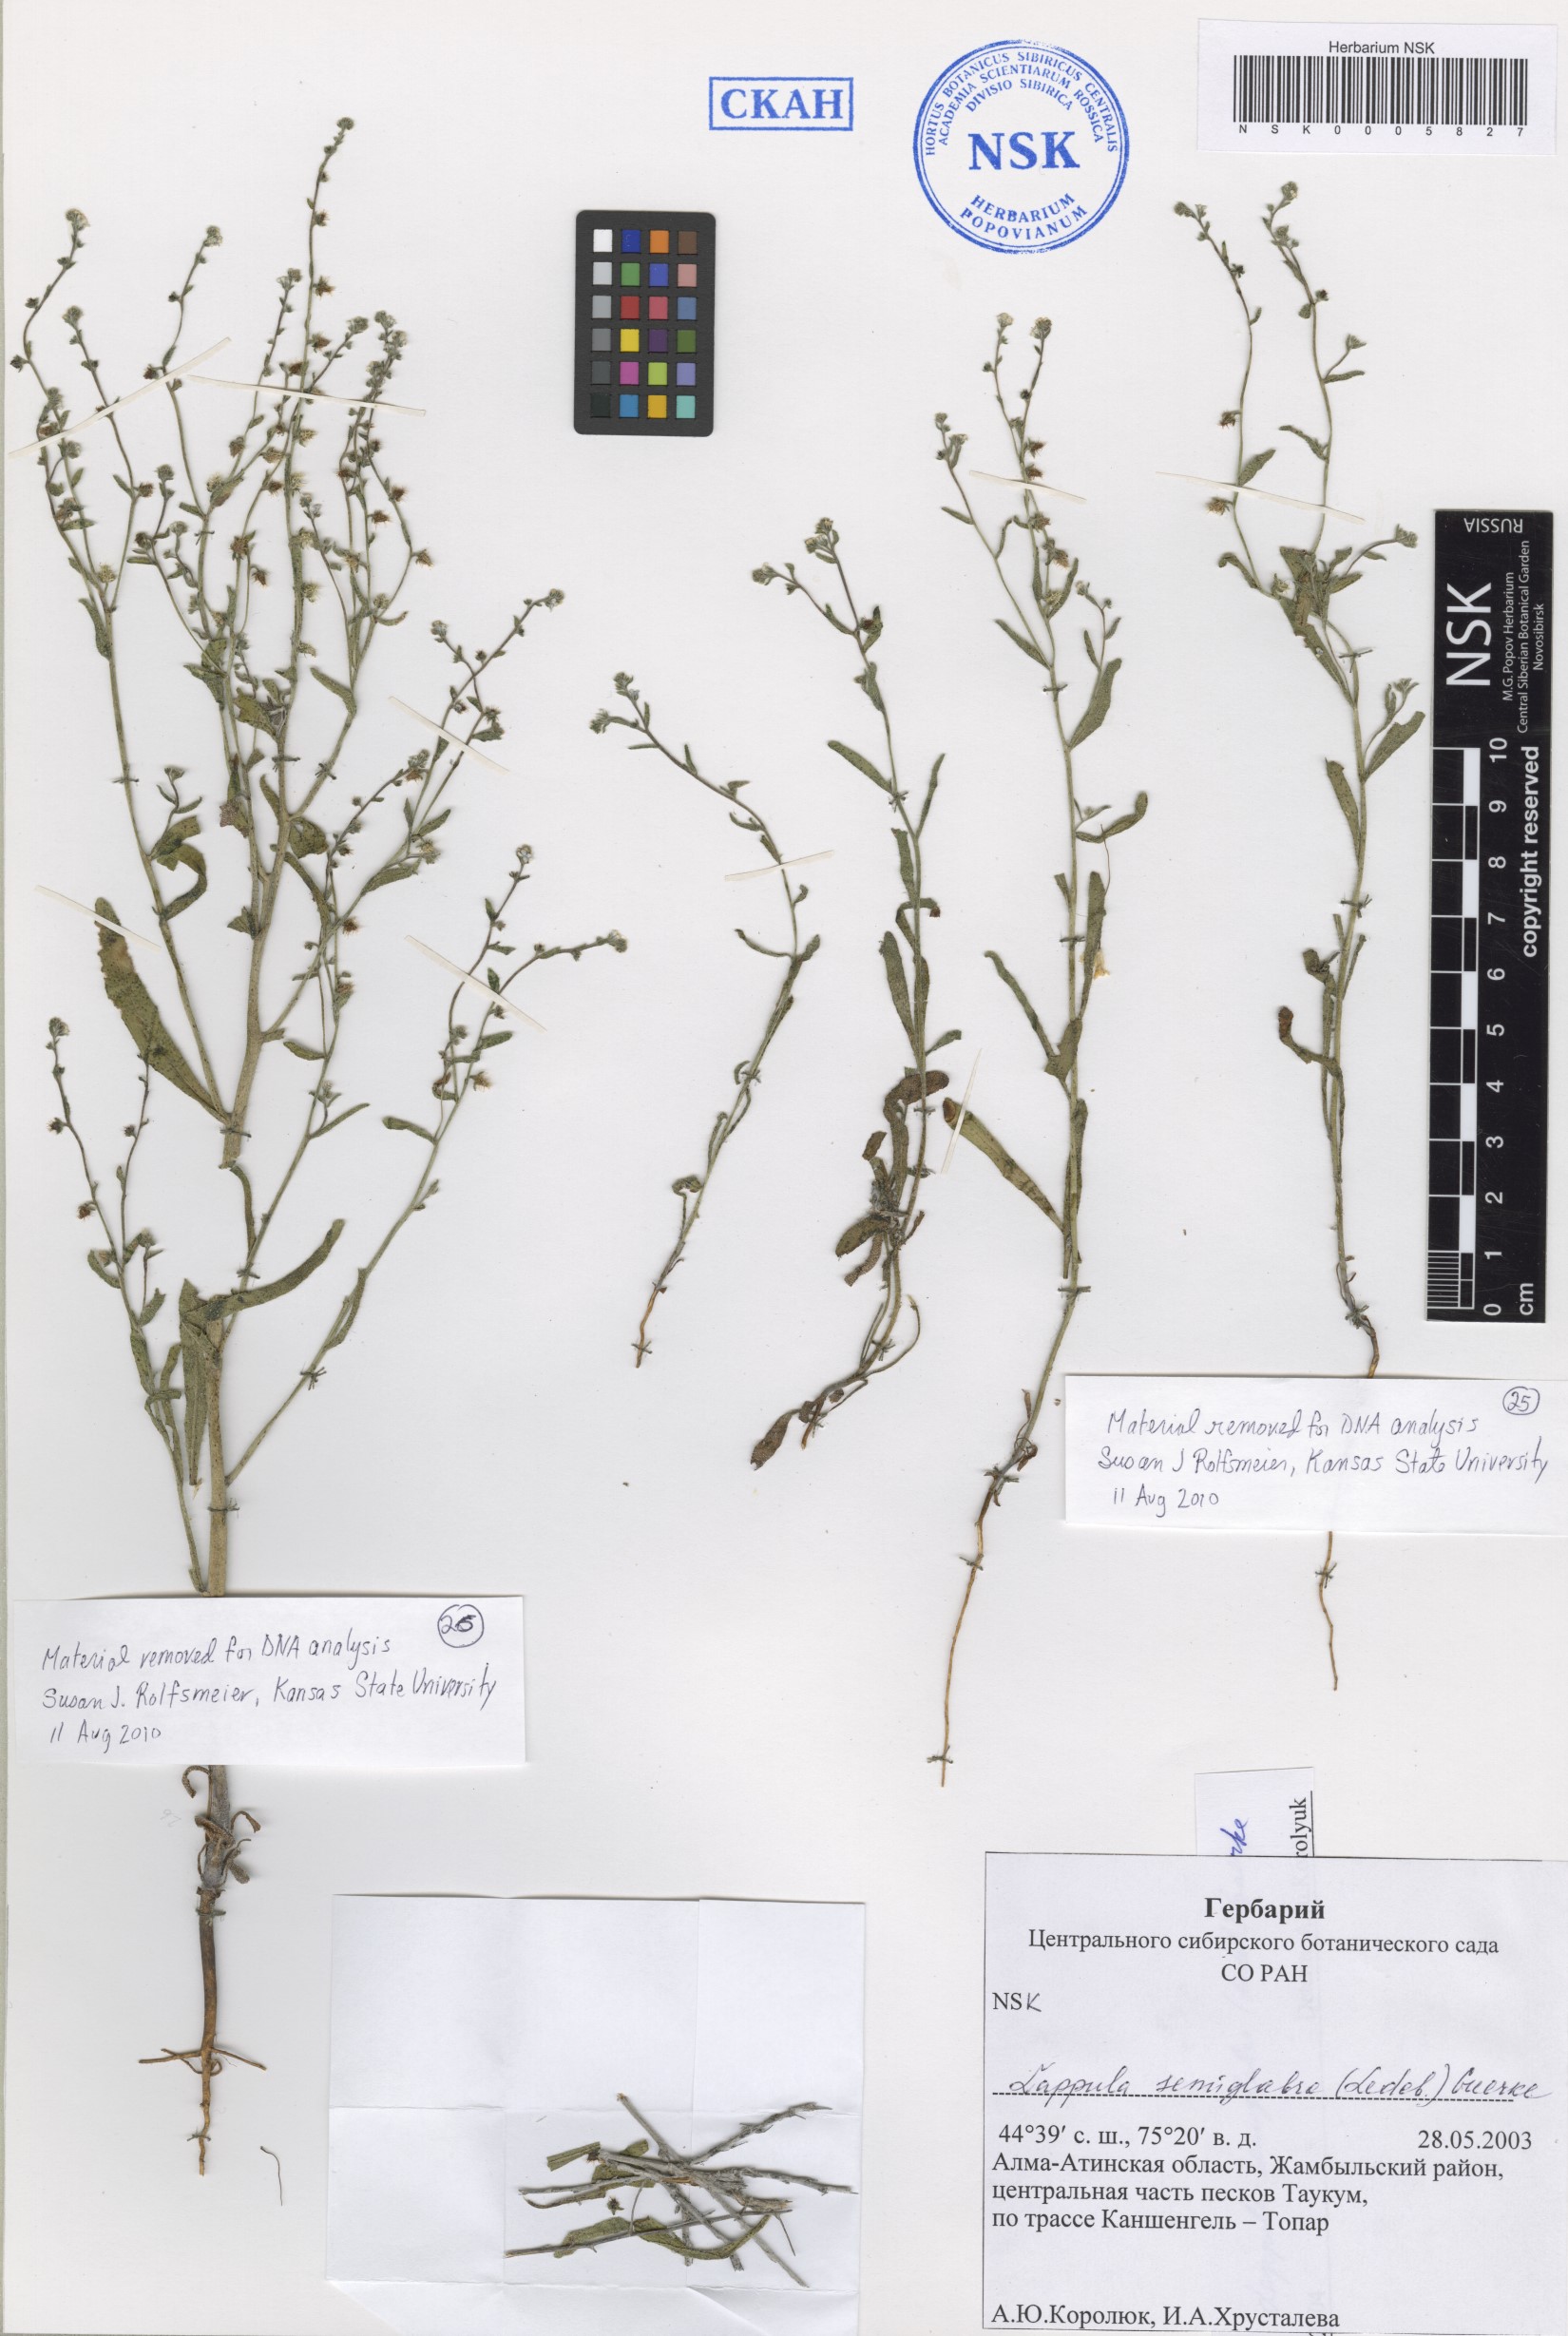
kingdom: Plantae
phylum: Tracheophyta
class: Magnoliopsida
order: Boraginales
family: Boraginaceae
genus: Lappula
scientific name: Lappula patula
